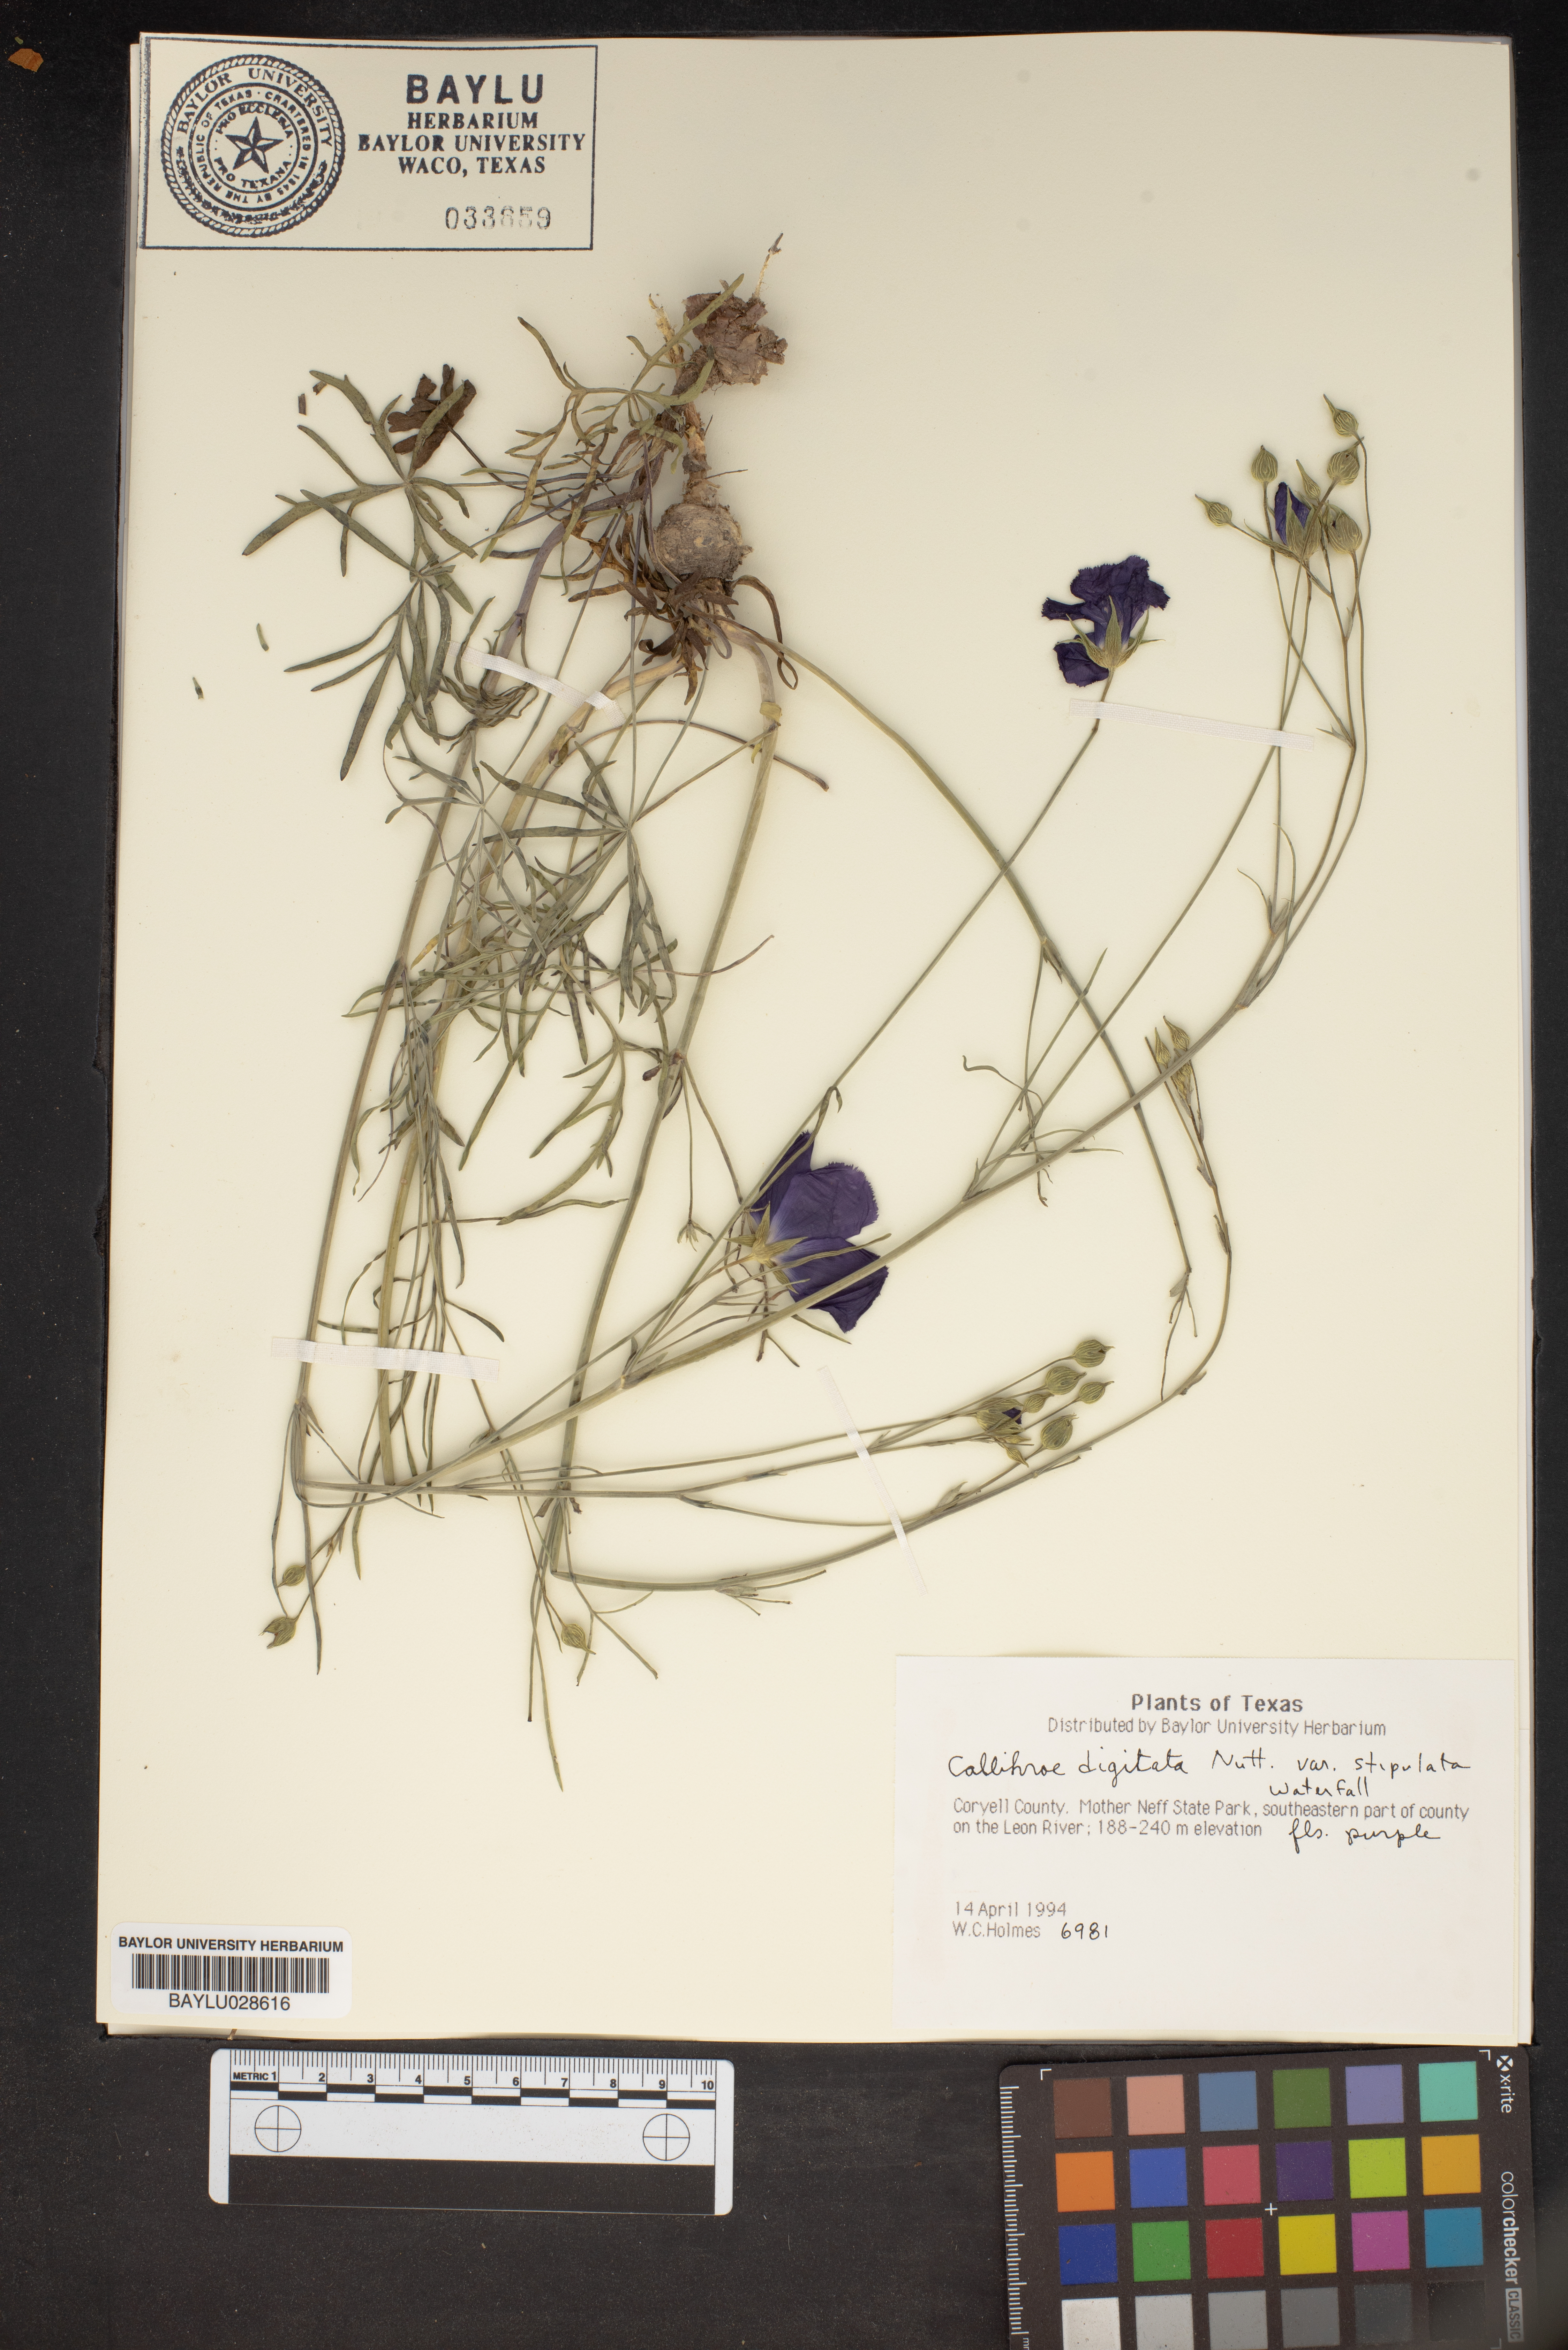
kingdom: Plantae
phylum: Tracheophyta
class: Magnoliopsida
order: Malvales
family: Malvaceae
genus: Callirhoe
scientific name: Callirhoe pedata
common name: Finger poppy-mallow
